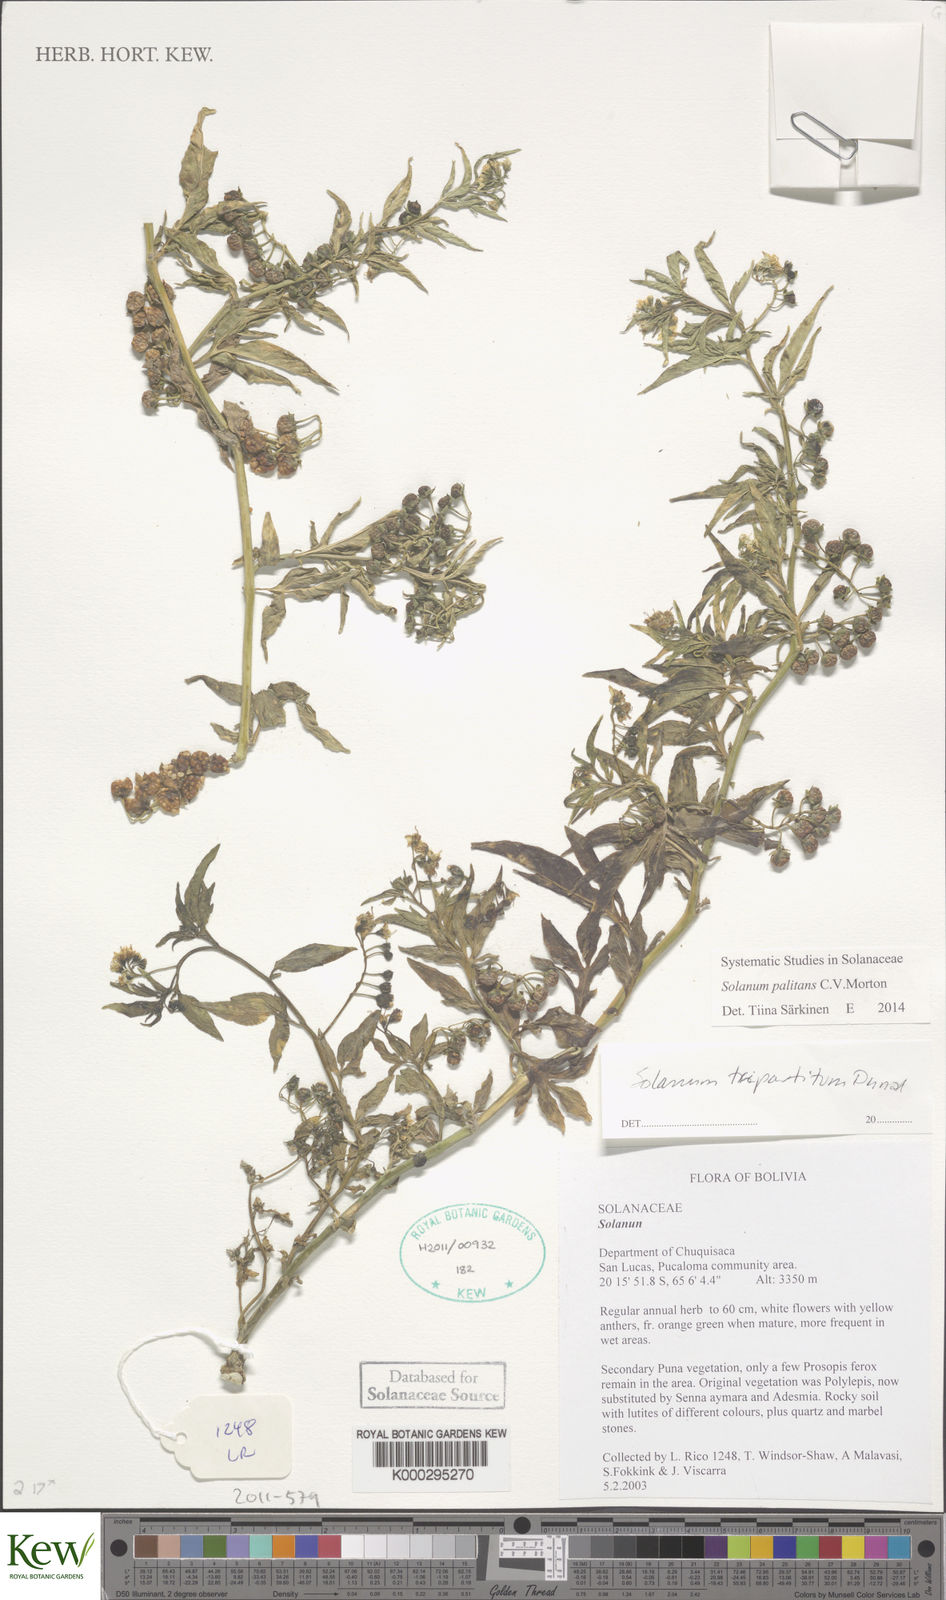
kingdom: Plantae
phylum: Tracheophyta
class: Magnoliopsida
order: Solanales
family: Solanaceae
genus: Solanum
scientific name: Solanum tripartitum
